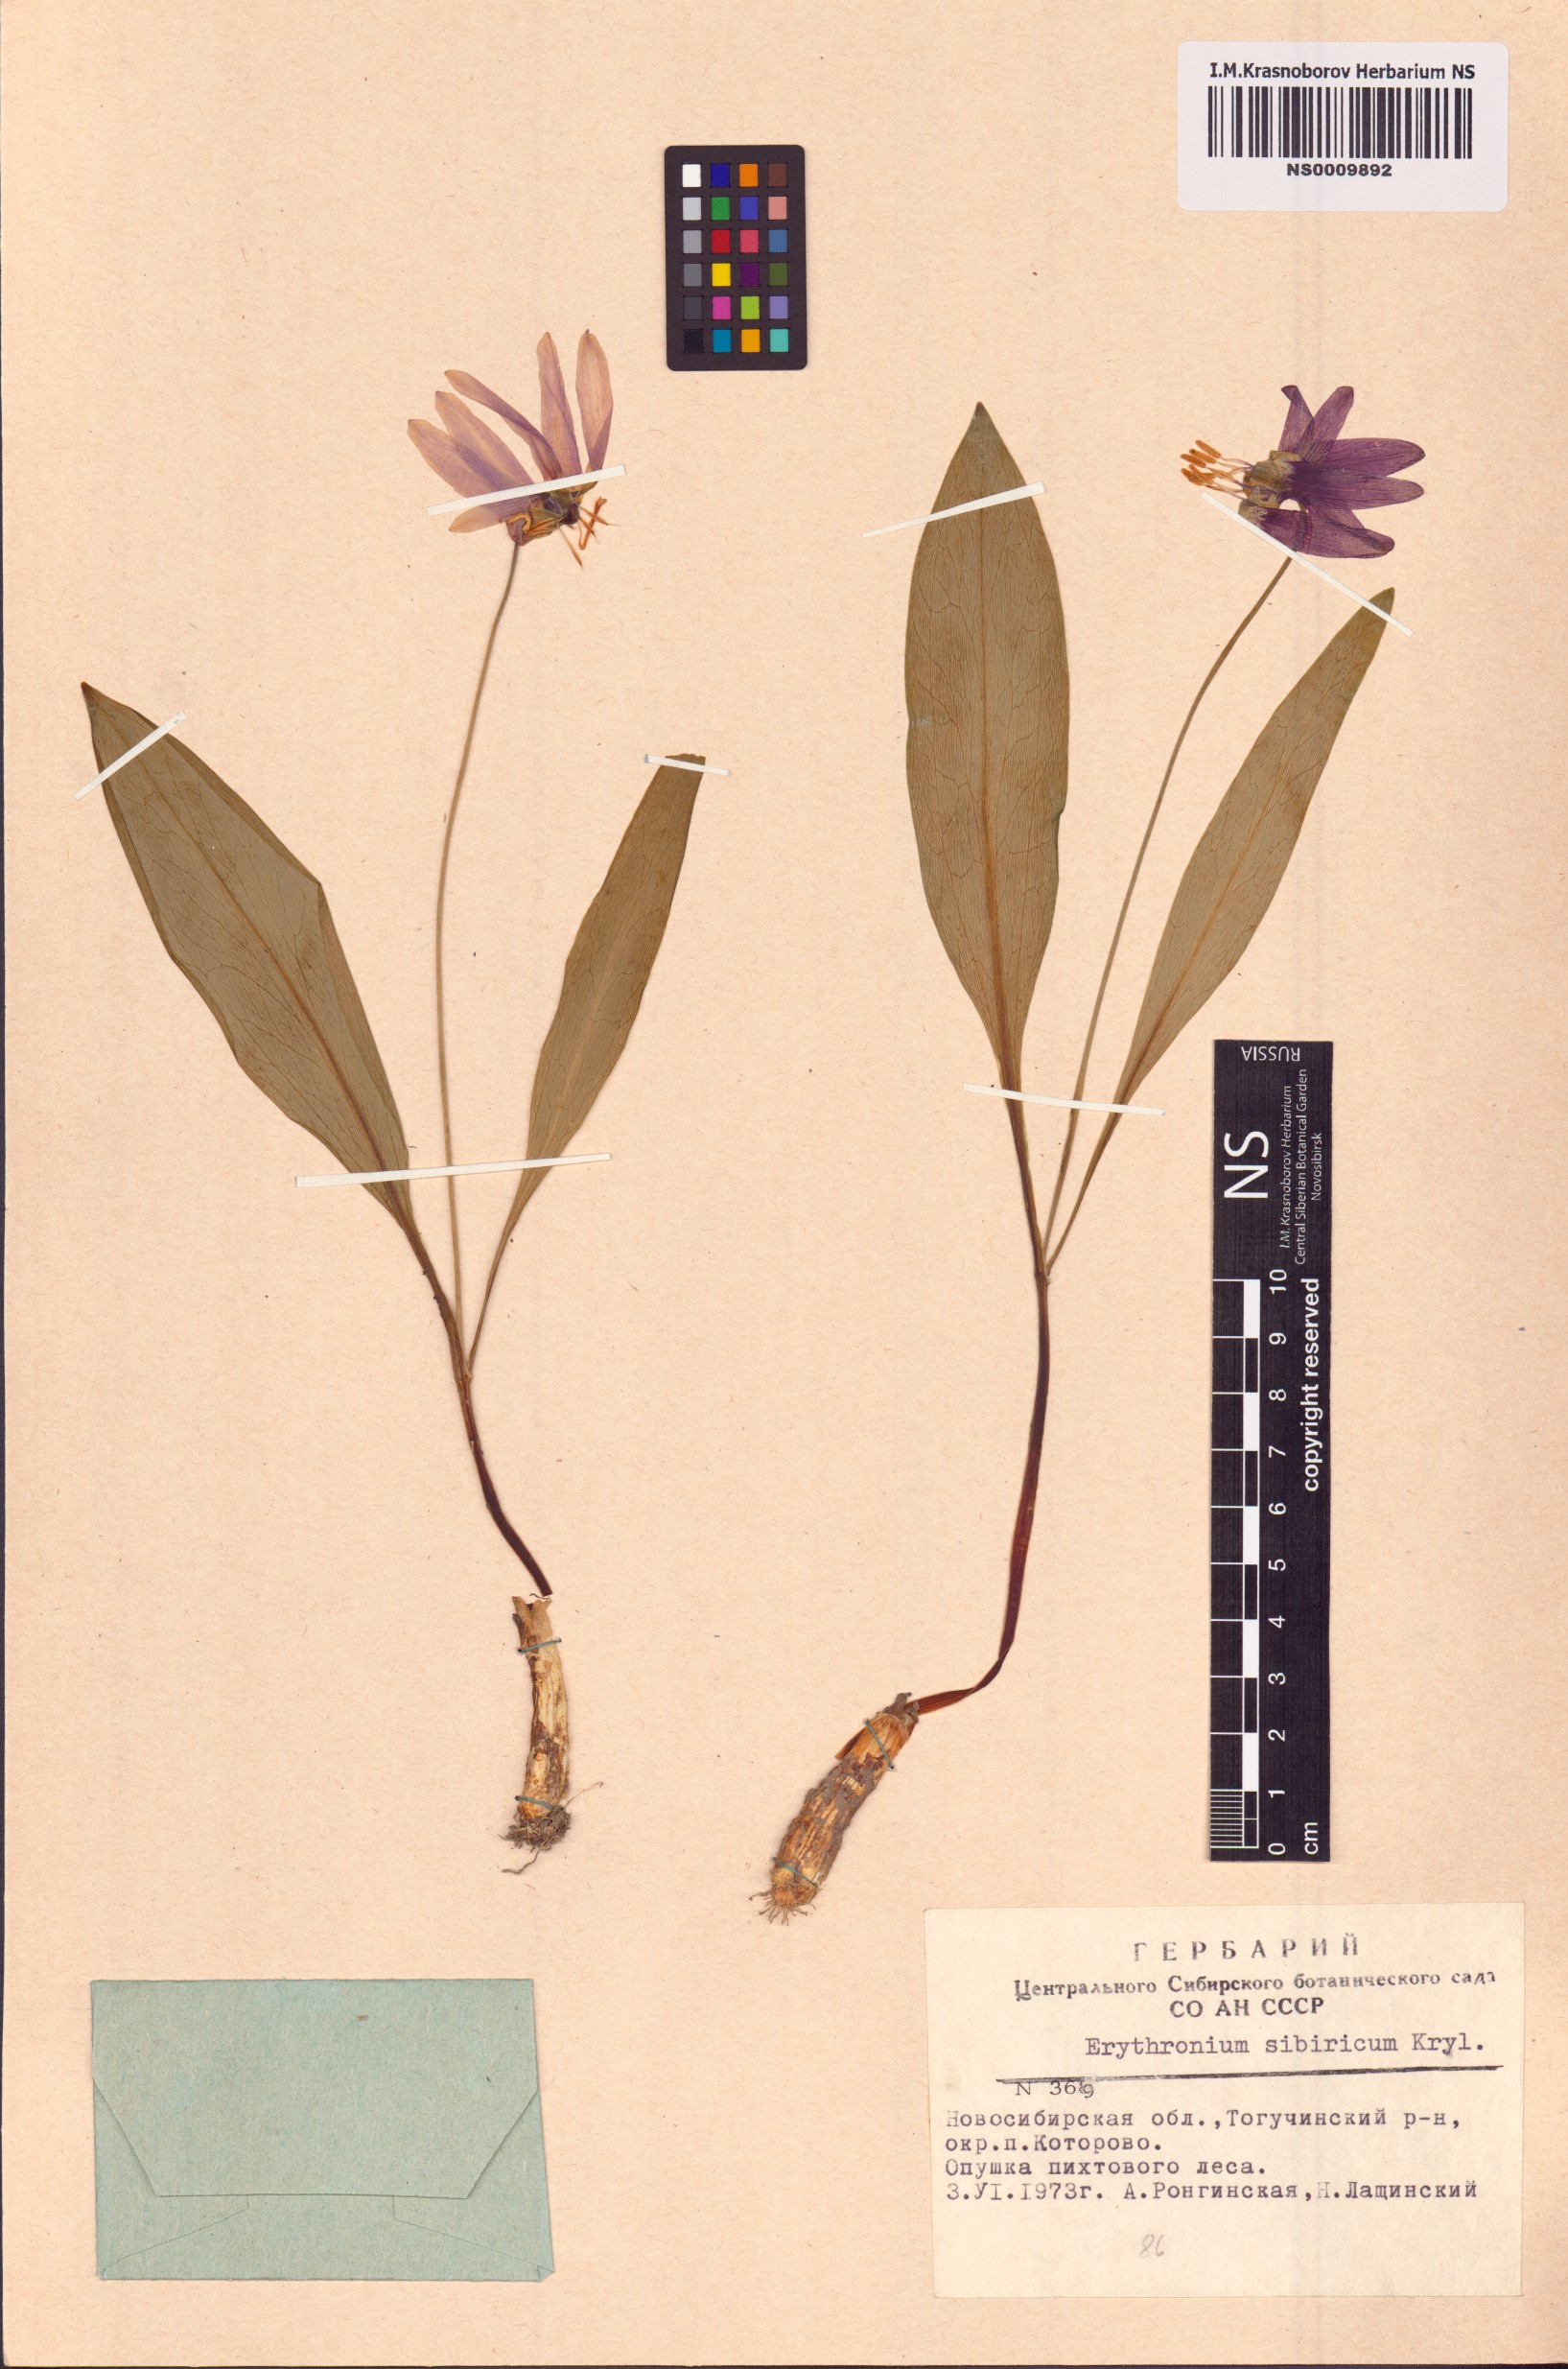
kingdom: Plantae
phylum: Tracheophyta
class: Liliopsida
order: Liliales
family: Liliaceae
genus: Erythronium
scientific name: Erythronium sibiricum
